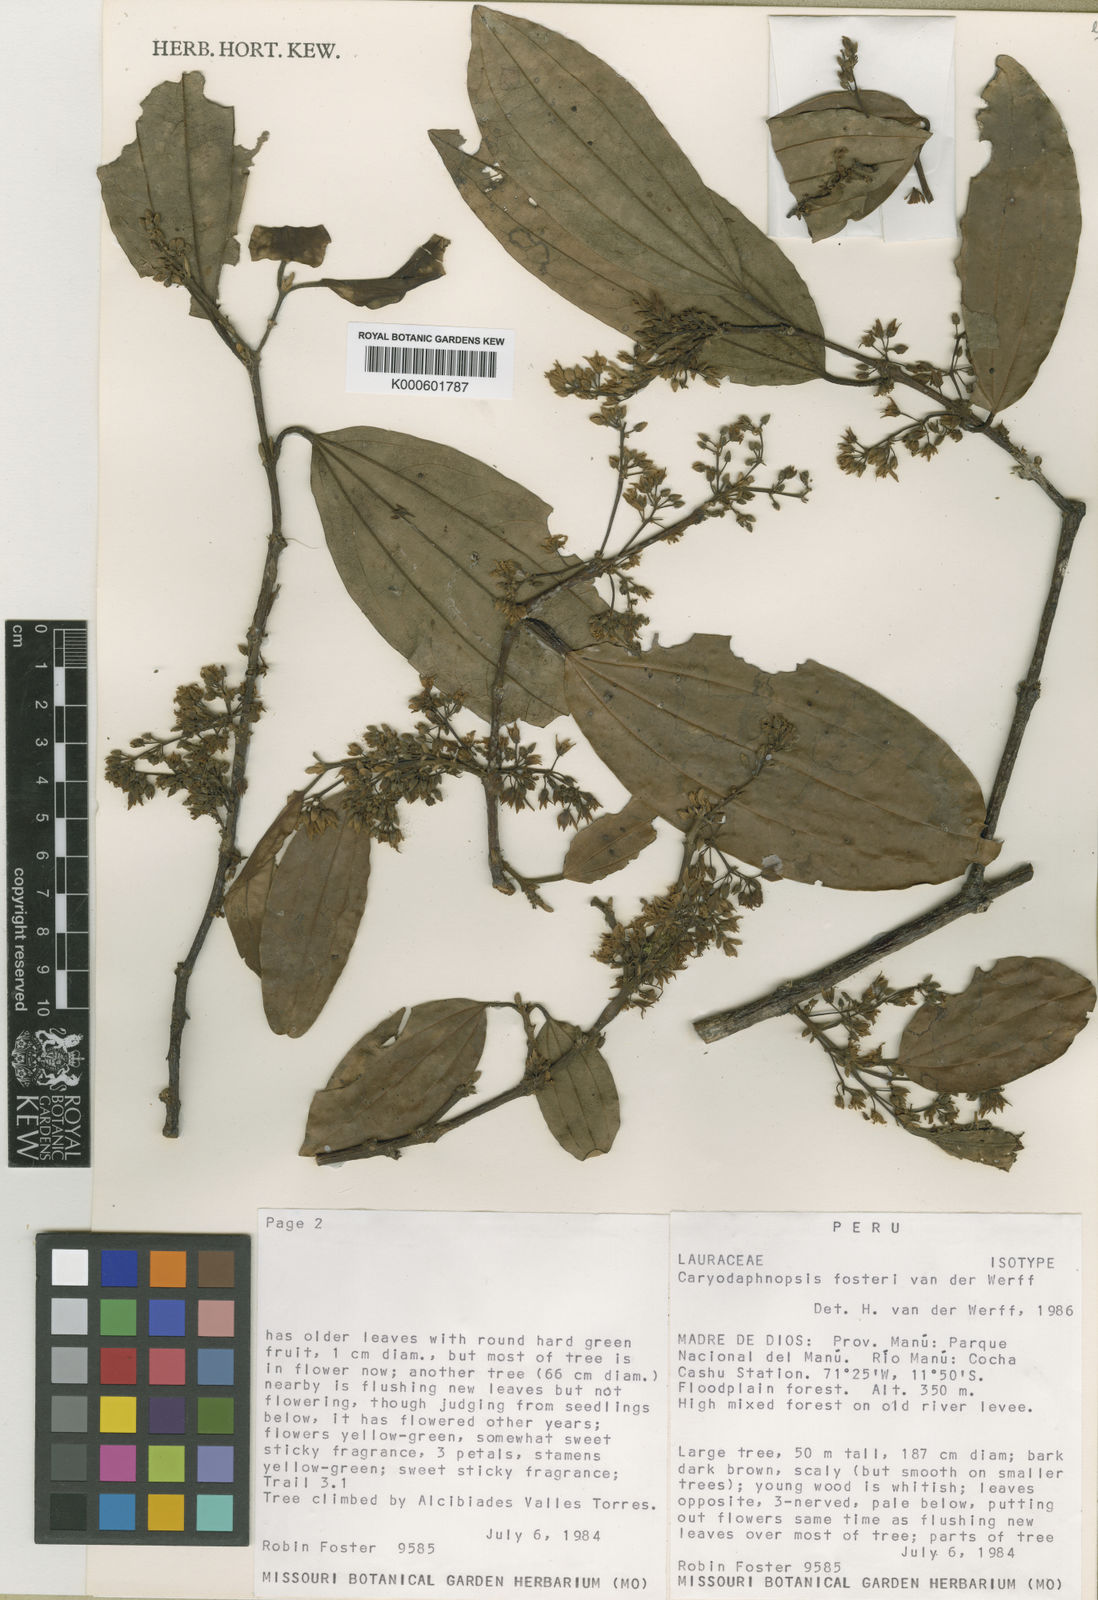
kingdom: Plantae
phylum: Tracheophyta
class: Magnoliopsida
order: Laurales
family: Lauraceae
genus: Caryodaphnopsis
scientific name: Caryodaphnopsis fosteri
